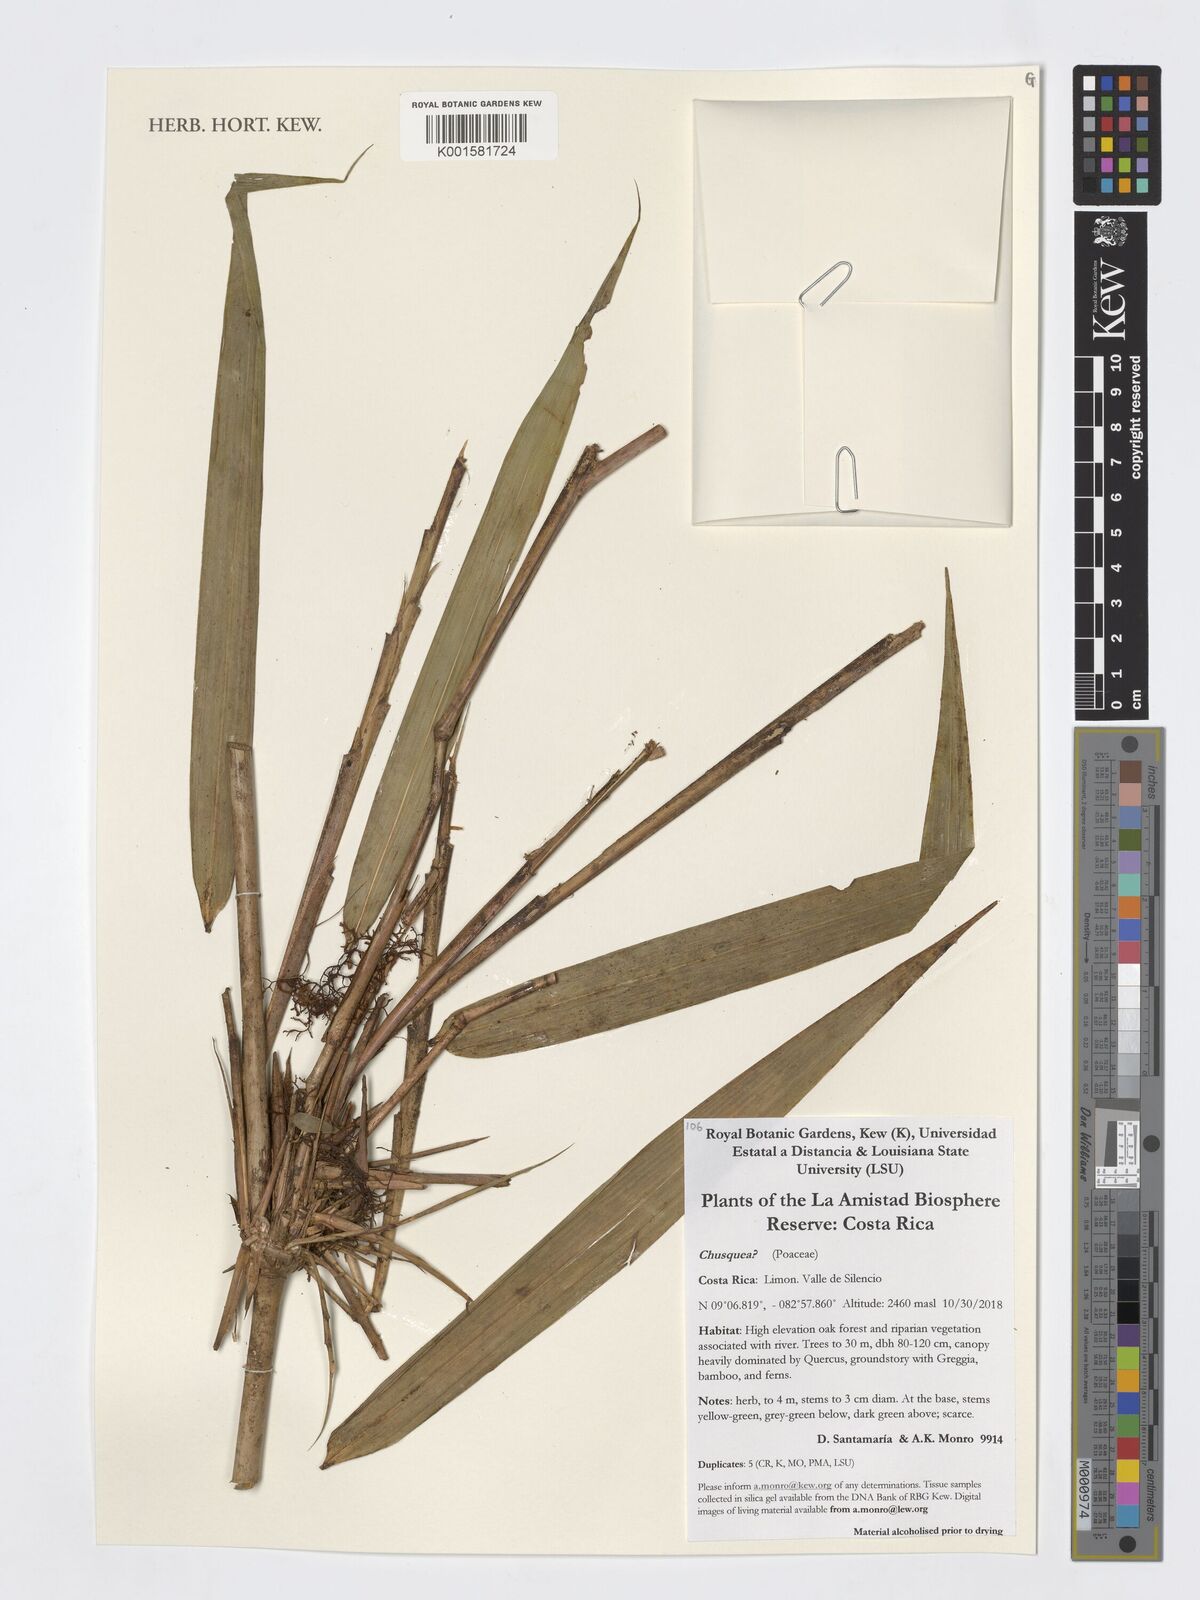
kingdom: Plantae
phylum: Tracheophyta
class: Liliopsida
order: Poales
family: Poaceae
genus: Chusquea
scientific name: Chusquea
